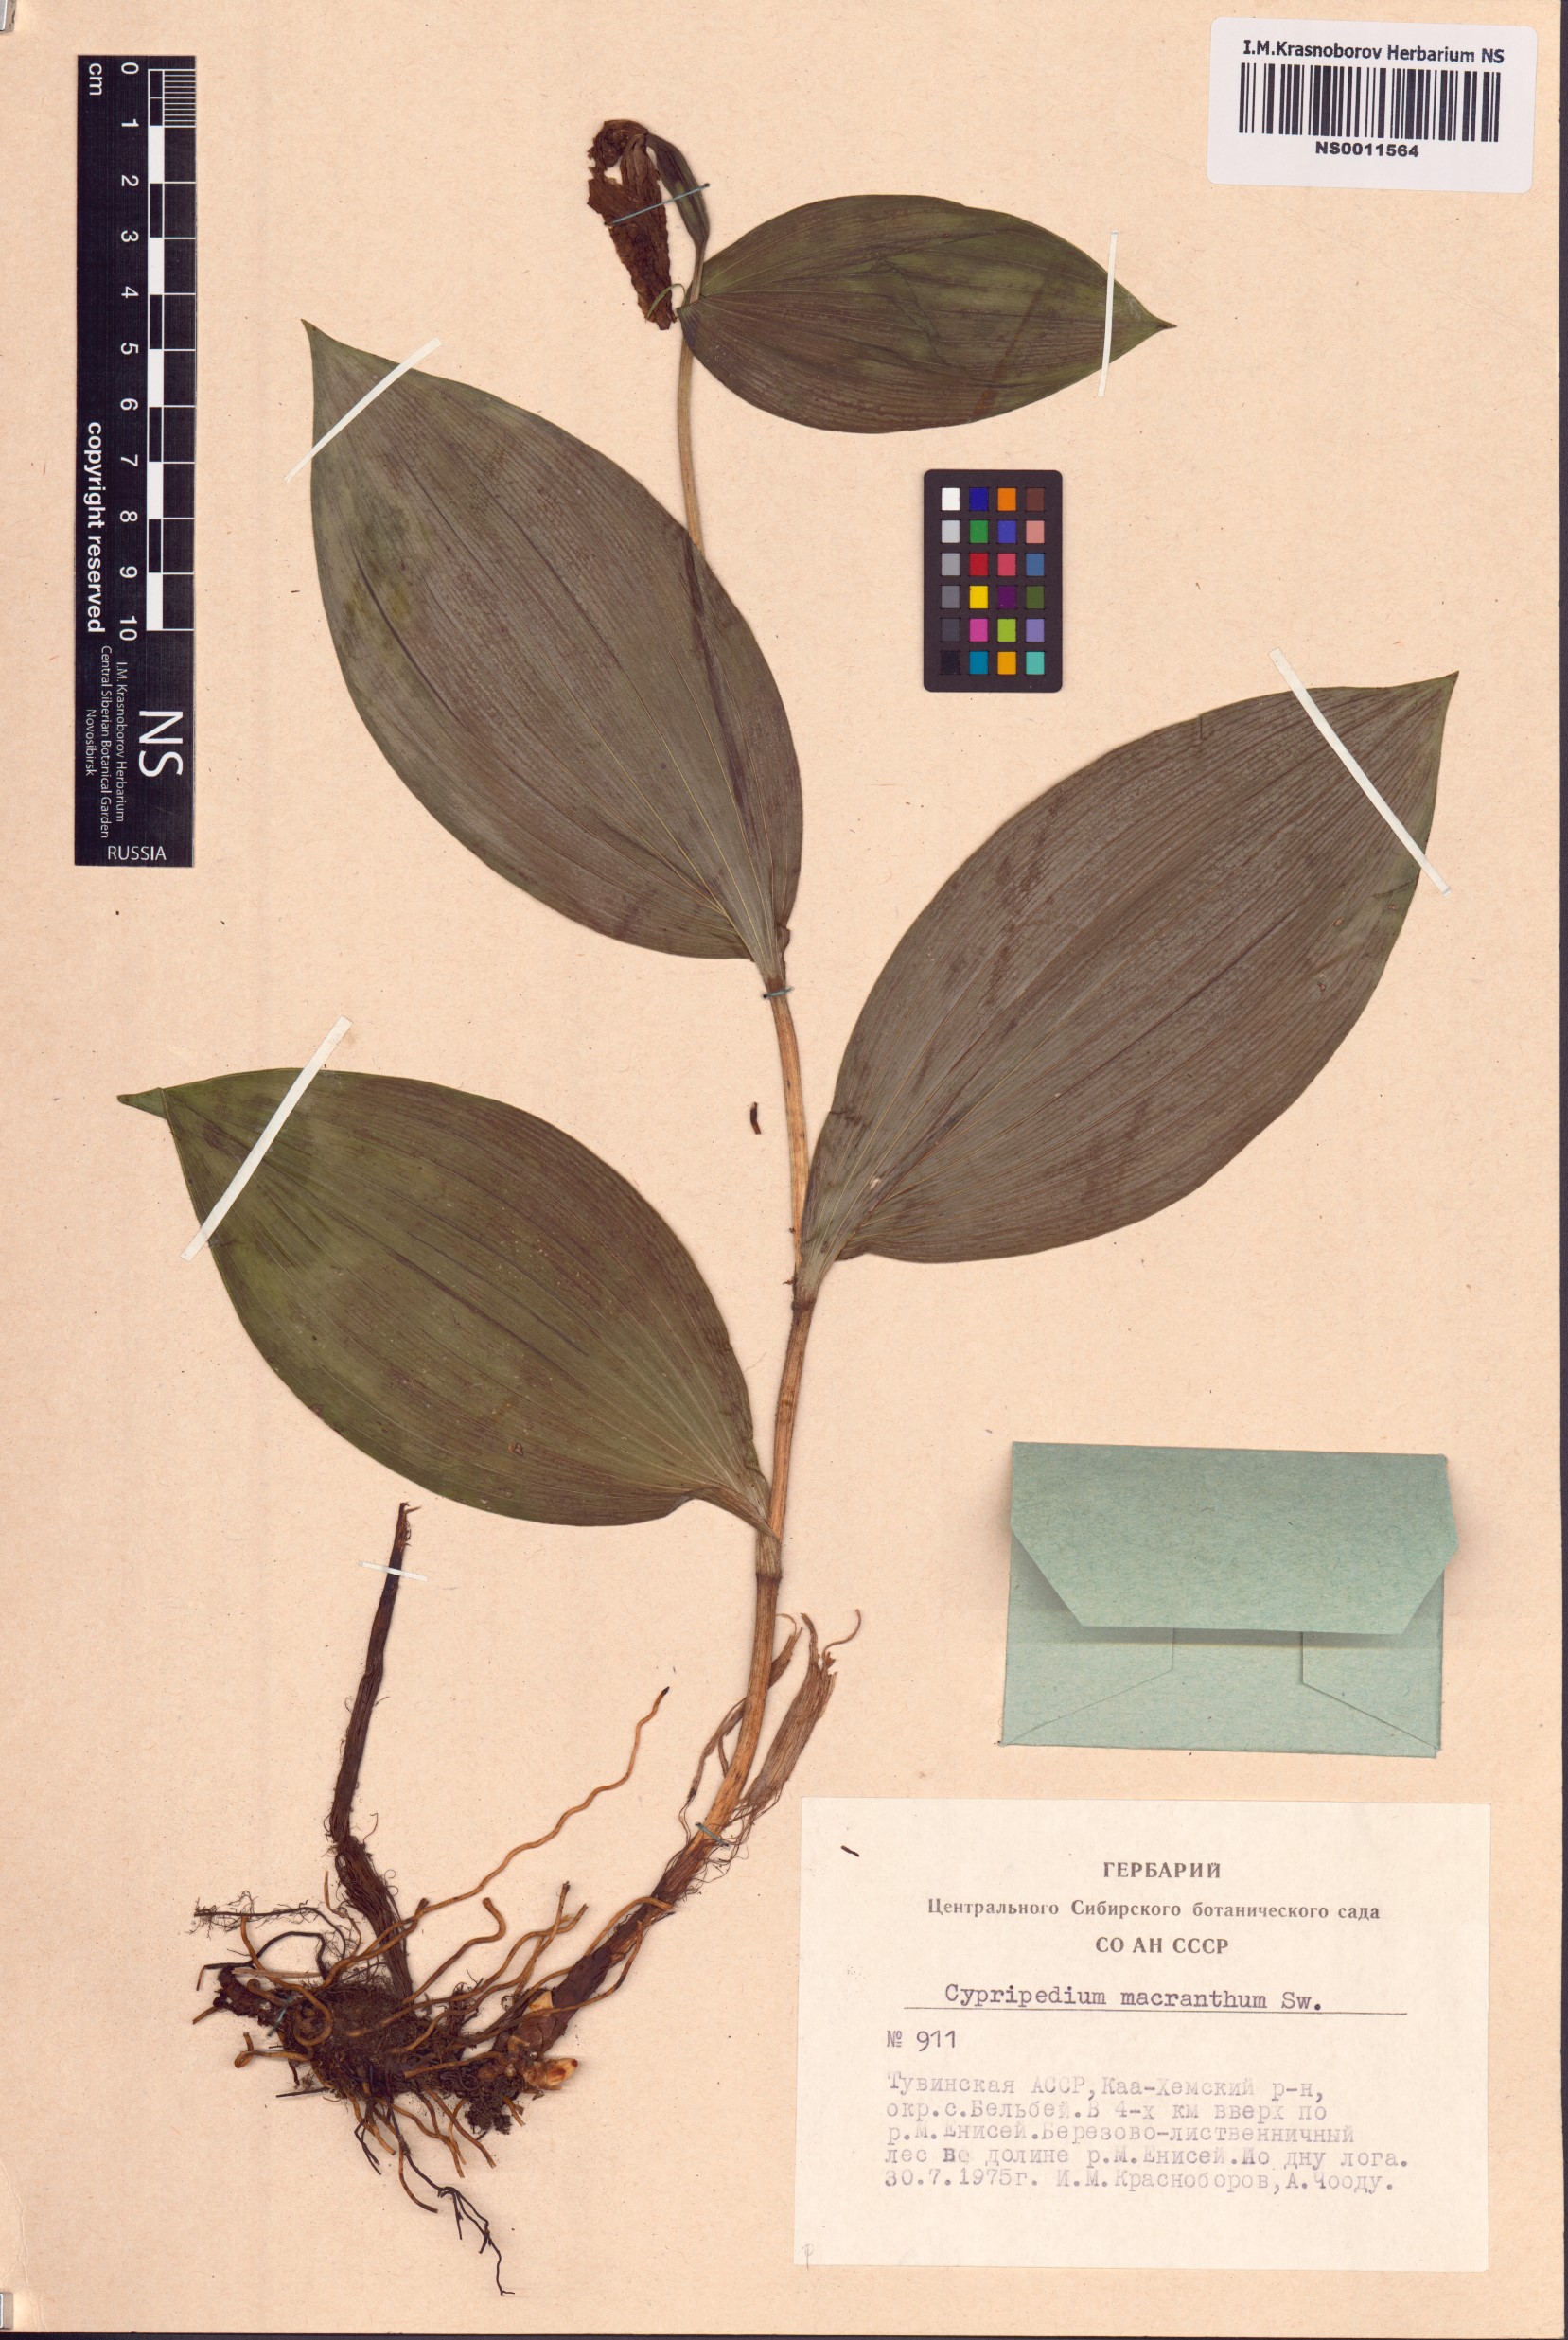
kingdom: Plantae
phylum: Tracheophyta
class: Liliopsida
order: Asparagales
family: Orchidaceae
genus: Cypripedium
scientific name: Cypripedium macranthos
